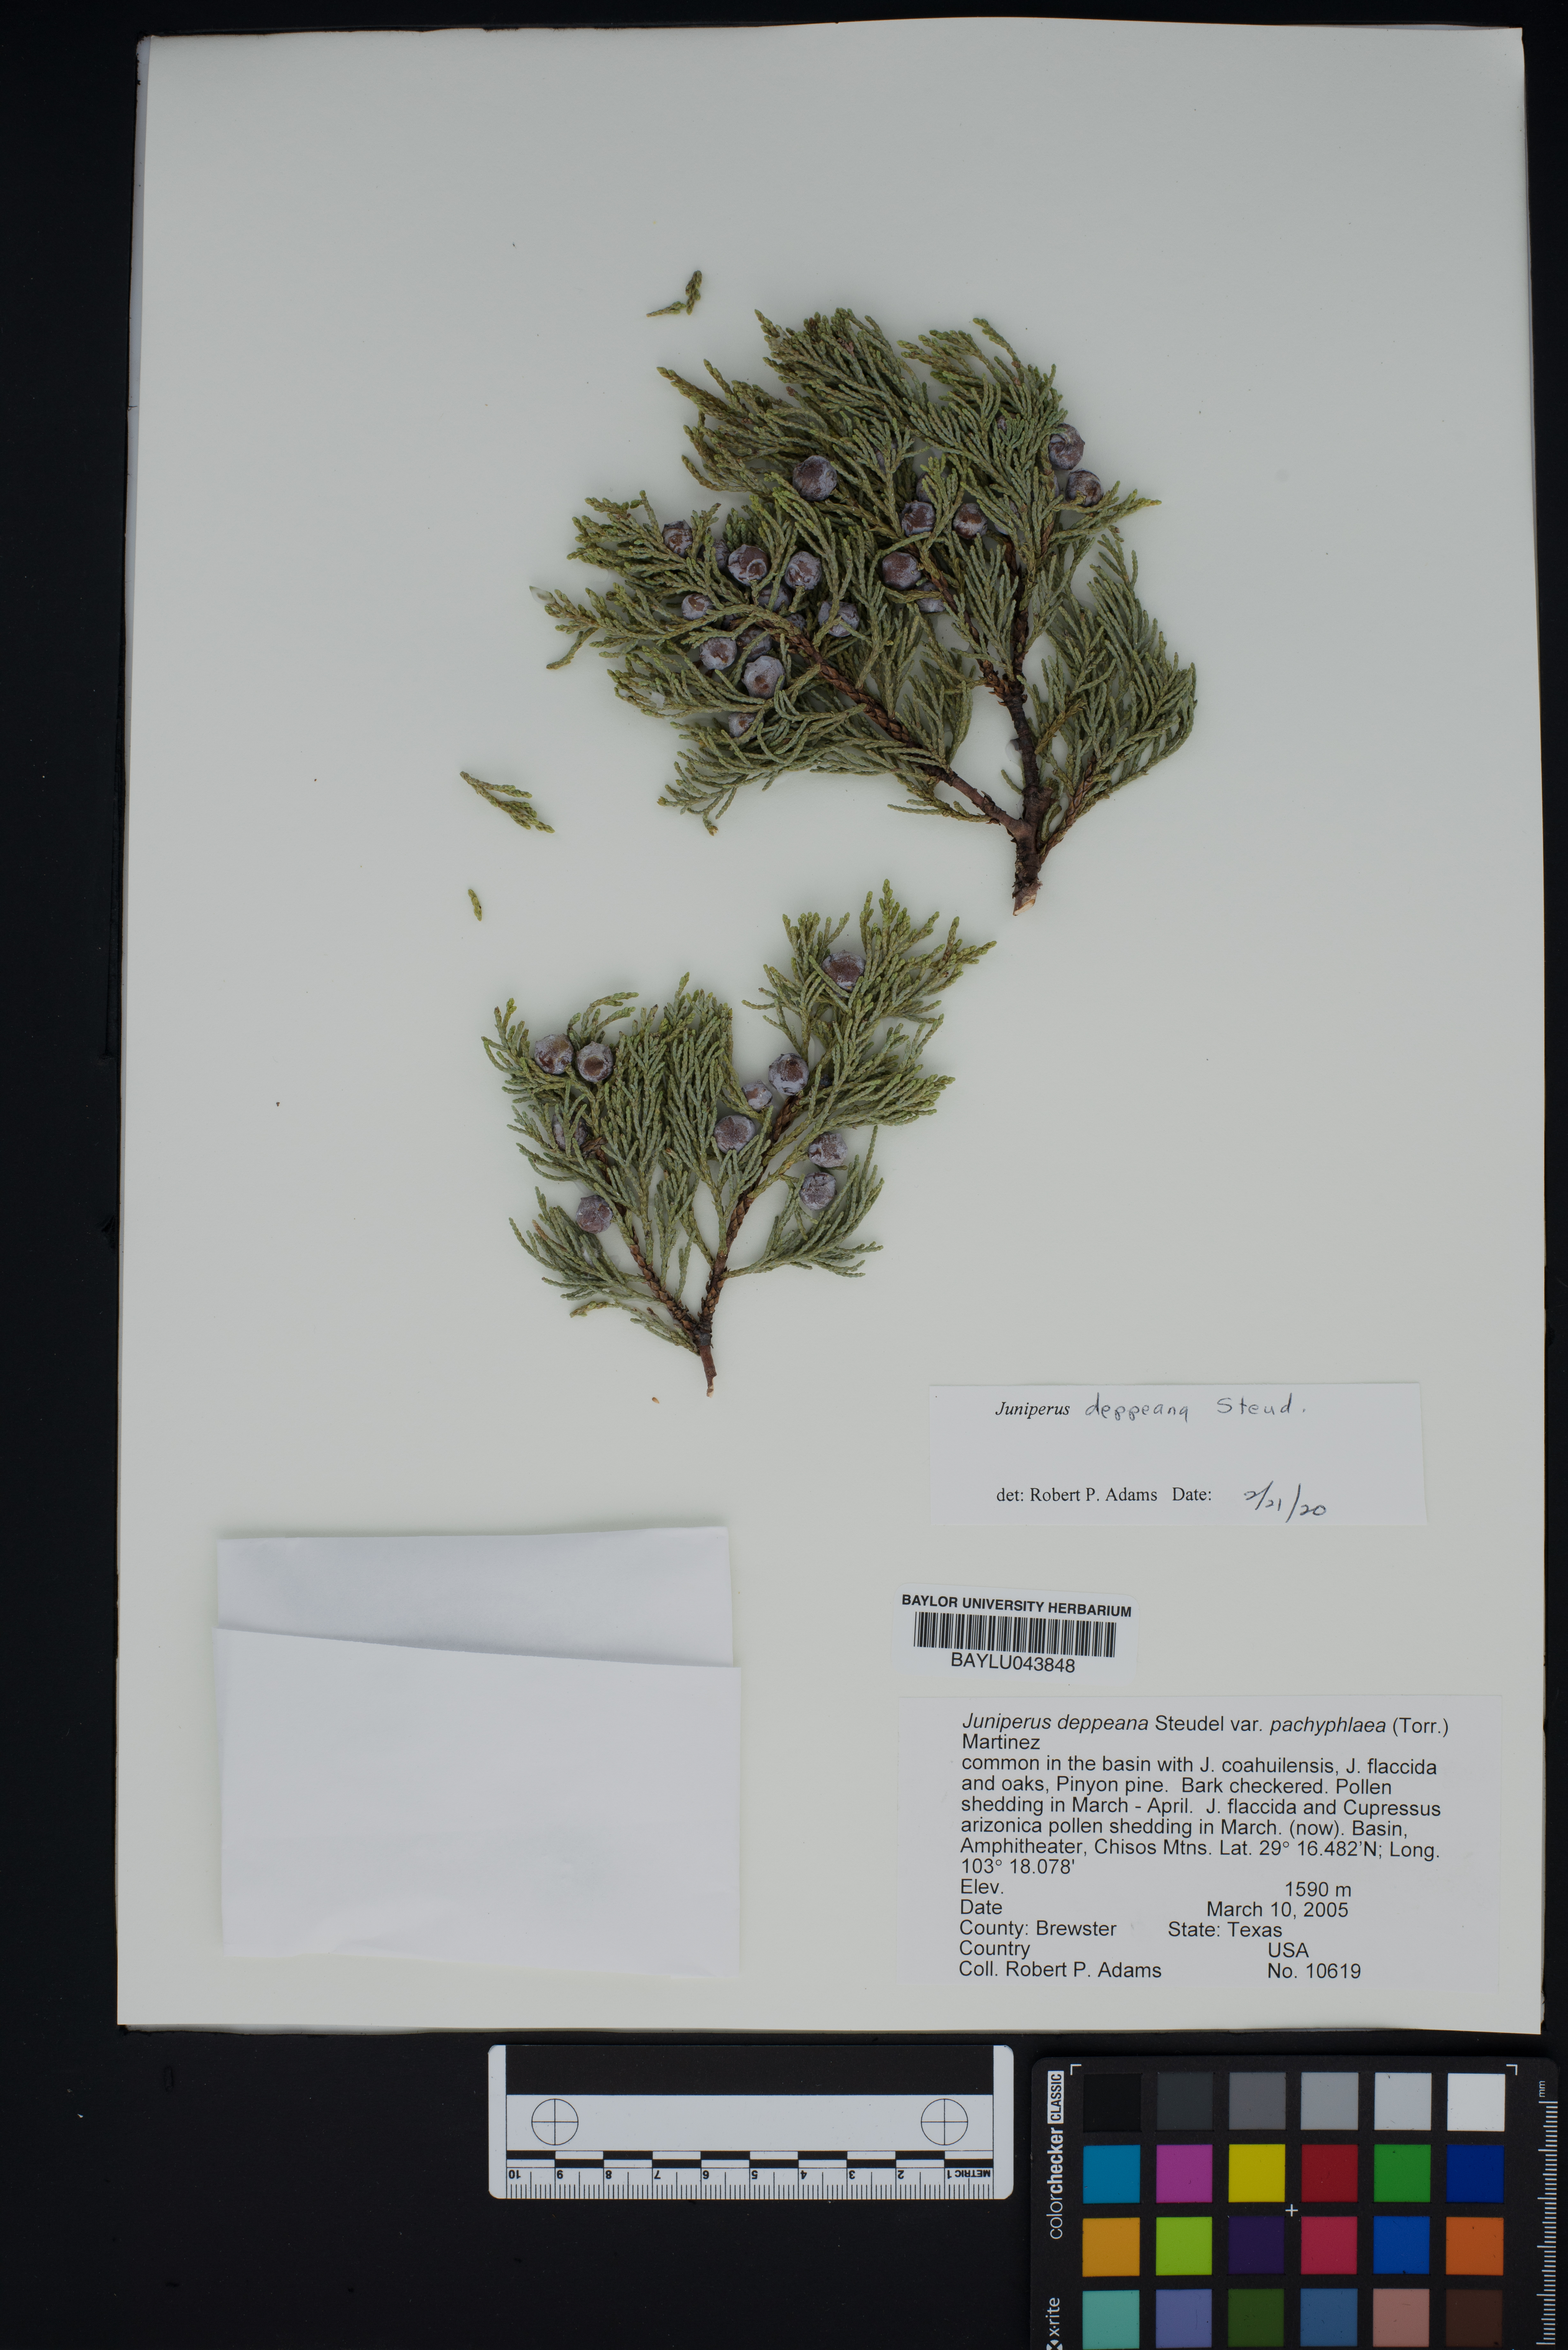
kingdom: Plantae
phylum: Tracheophyta
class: Pinopsida
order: Pinales
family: Cupressaceae
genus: Juniperus
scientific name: Juniperus deppeana
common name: Alligator juniper
